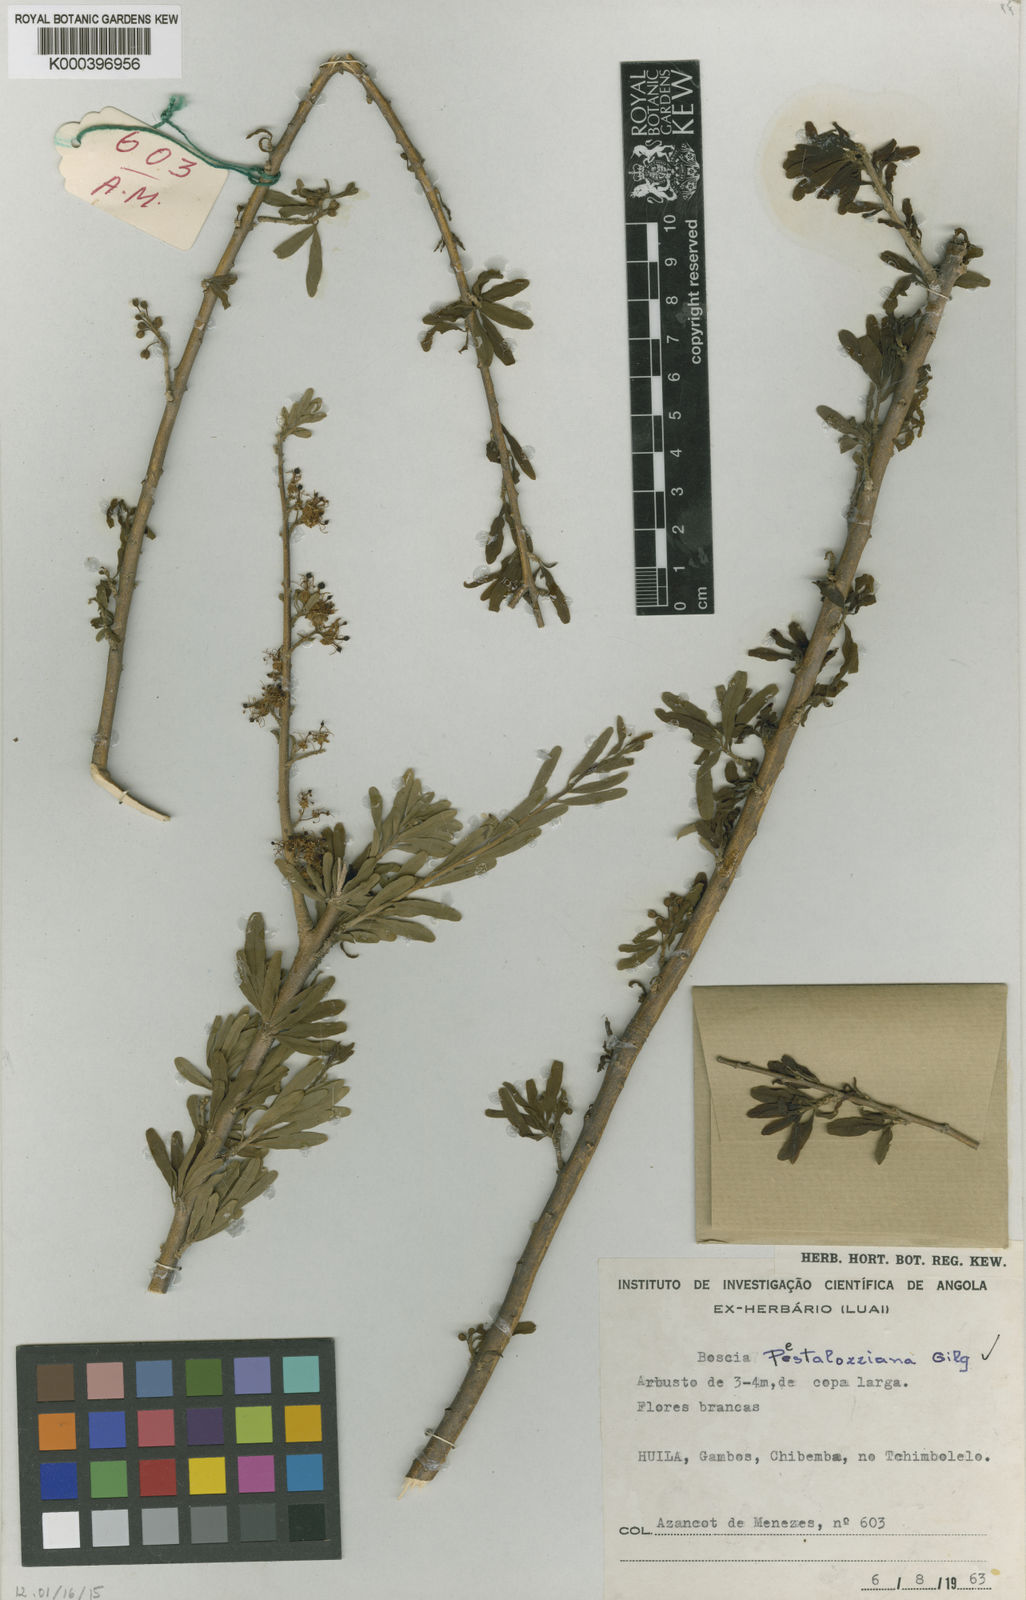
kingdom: Plantae
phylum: Tracheophyta
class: Magnoliopsida
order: Brassicales
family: Capparaceae
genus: Boscia
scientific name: Boscia pestalozziana
